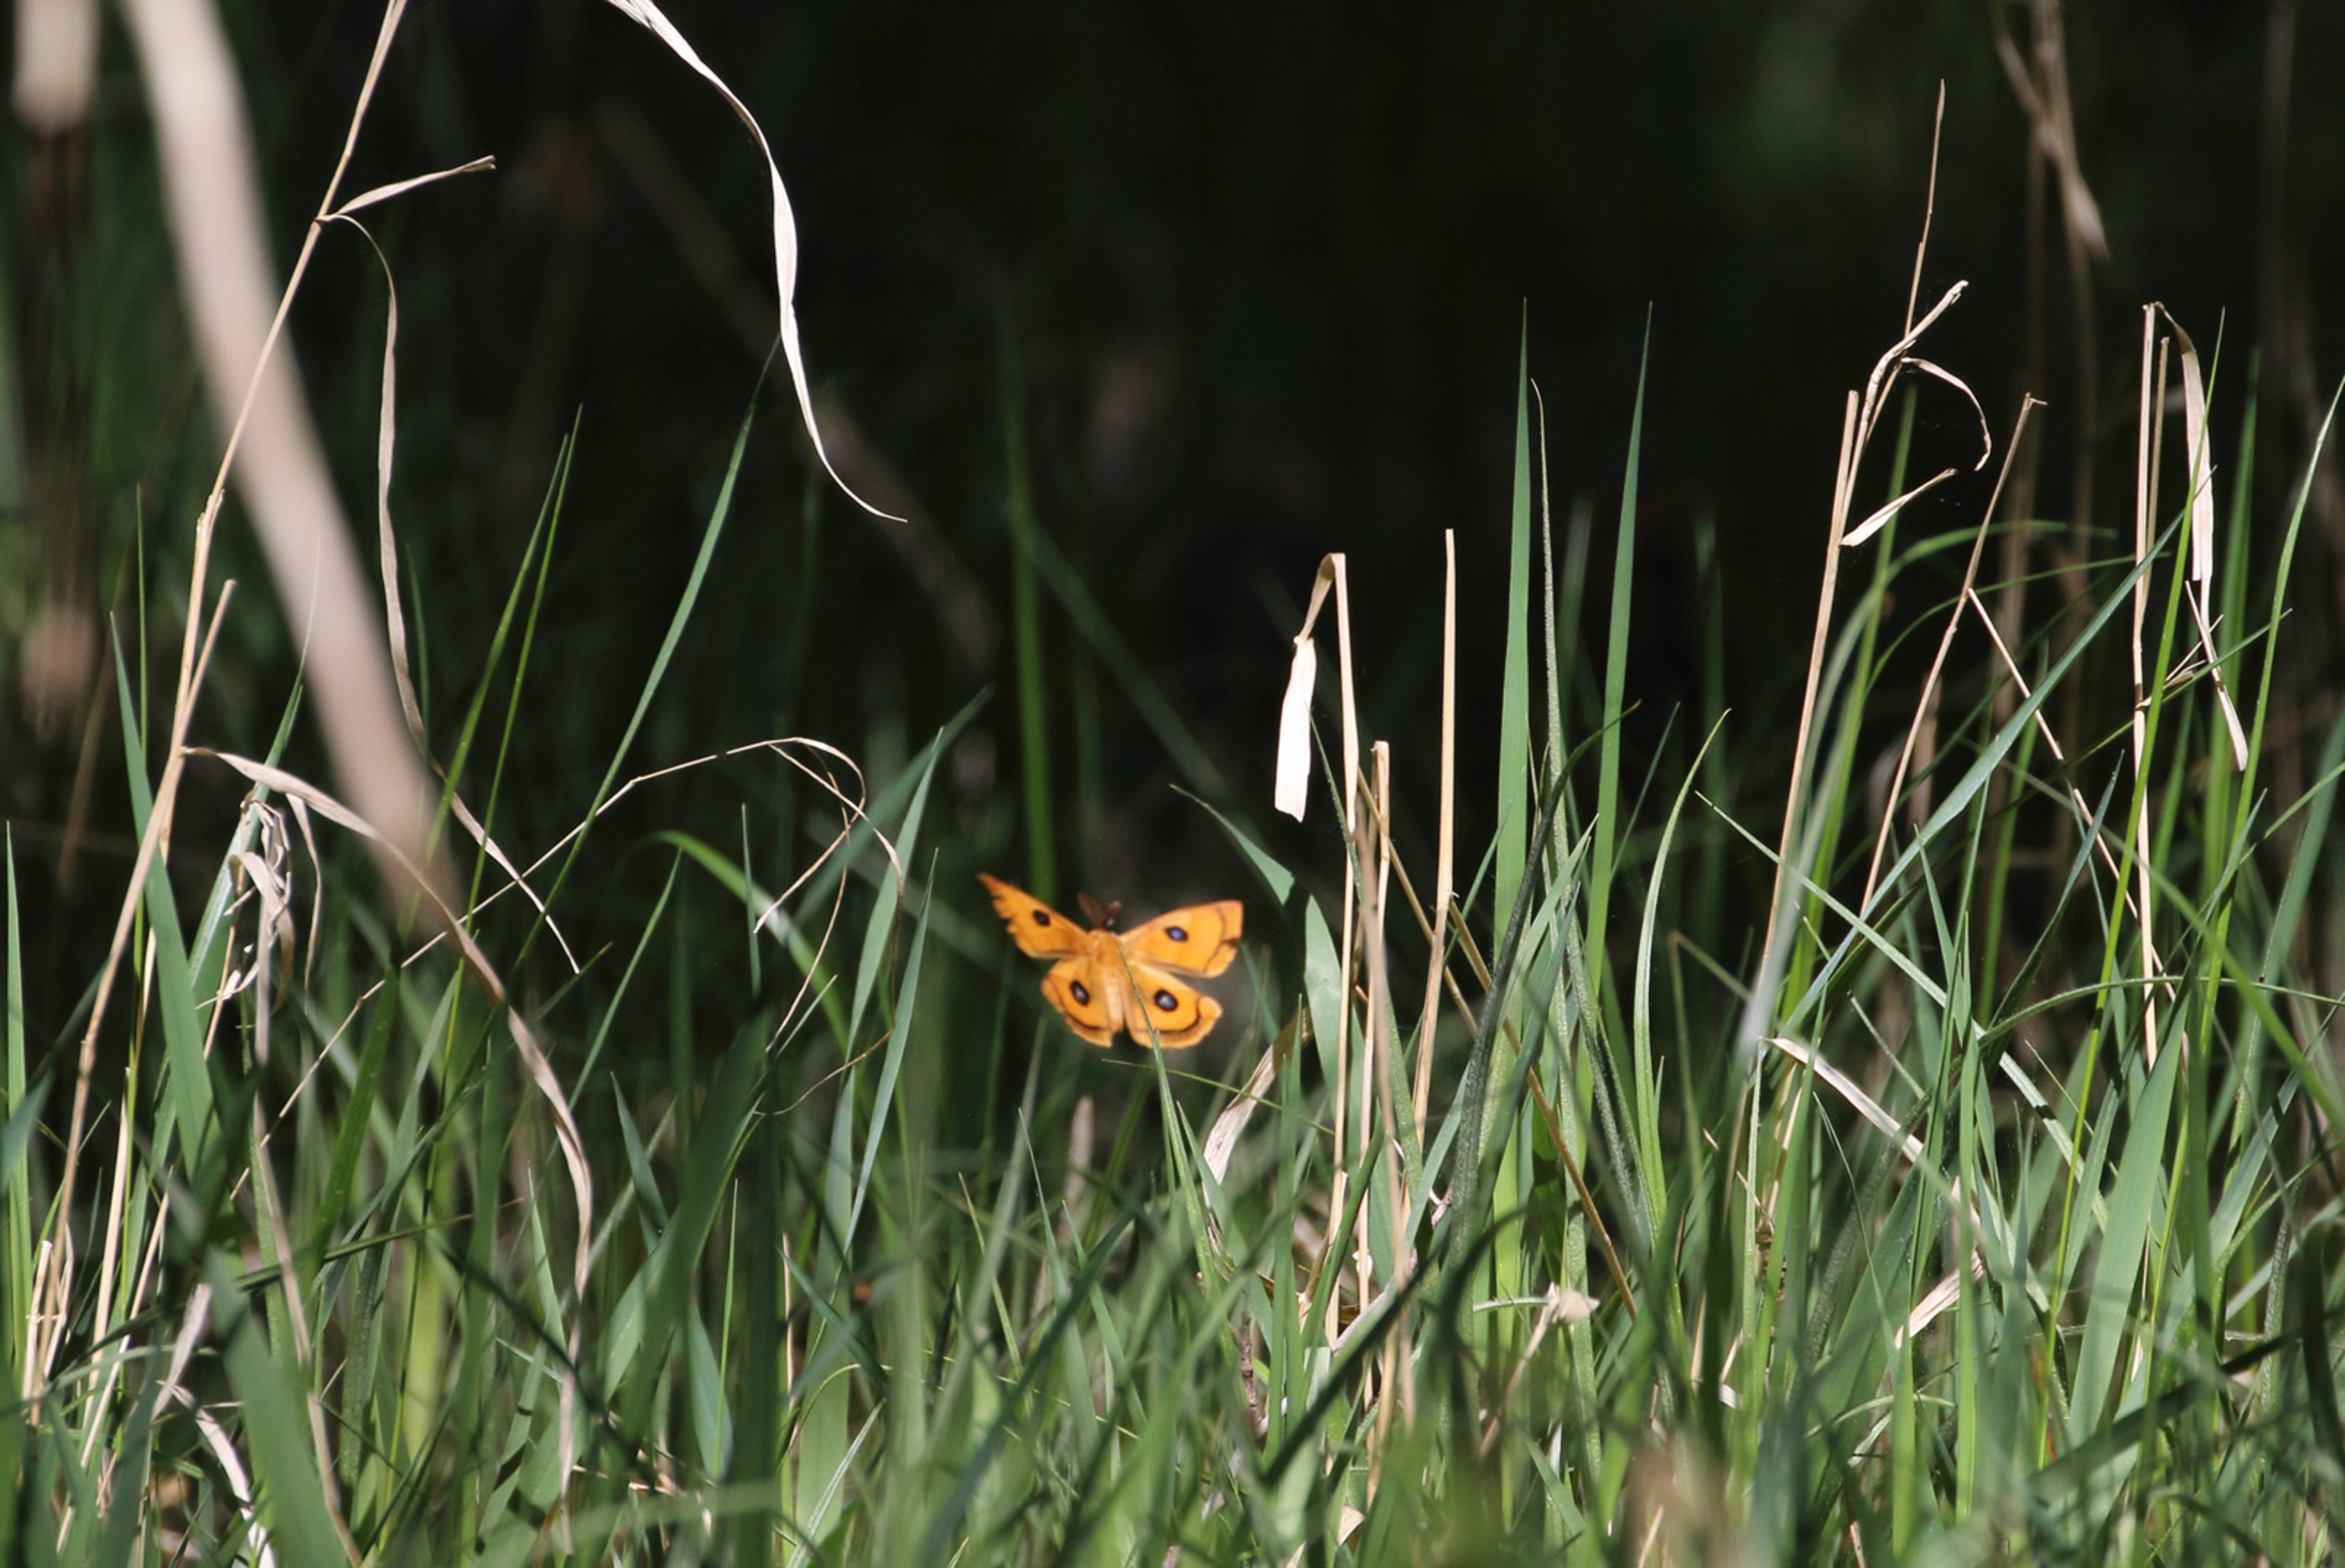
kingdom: Animalia
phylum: Arthropoda
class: Insecta
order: Lepidoptera
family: Saturniidae
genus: Aglia
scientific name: Aglia tau
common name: Sømplet
